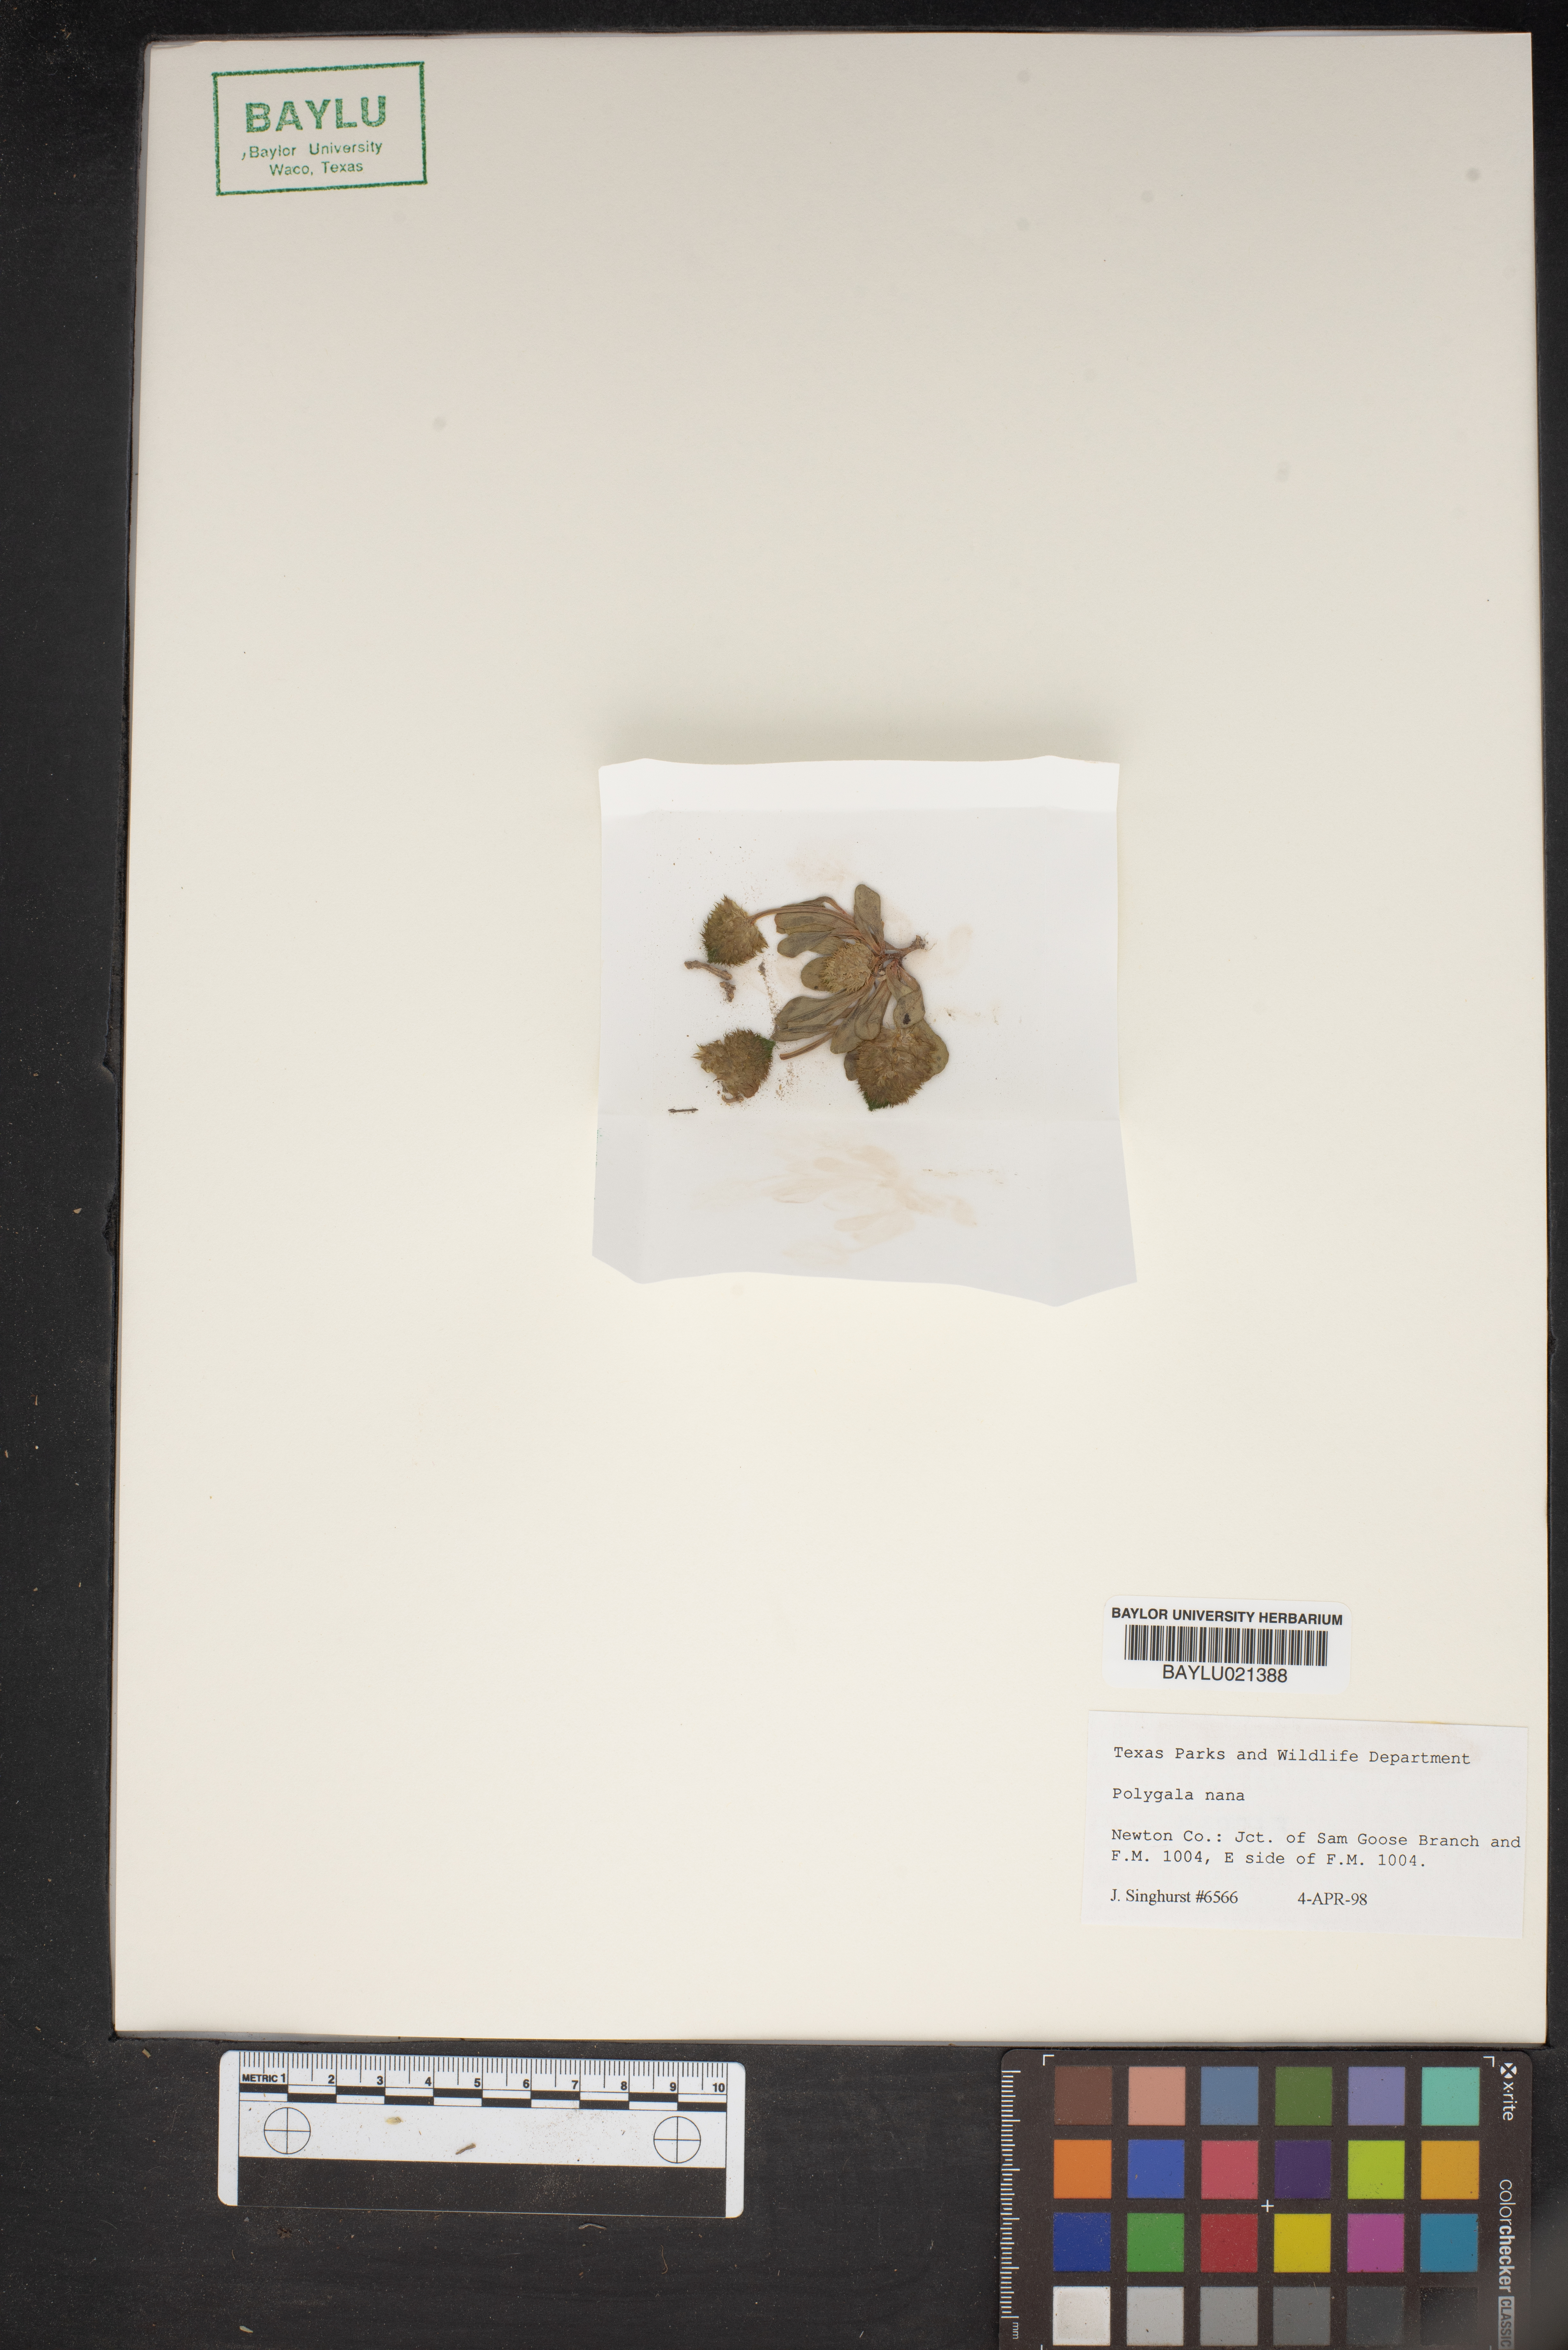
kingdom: Plantae
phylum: Tracheophyta
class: Magnoliopsida
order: Fabales
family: Polygalaceae
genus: Polygala
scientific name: Polygala nana
